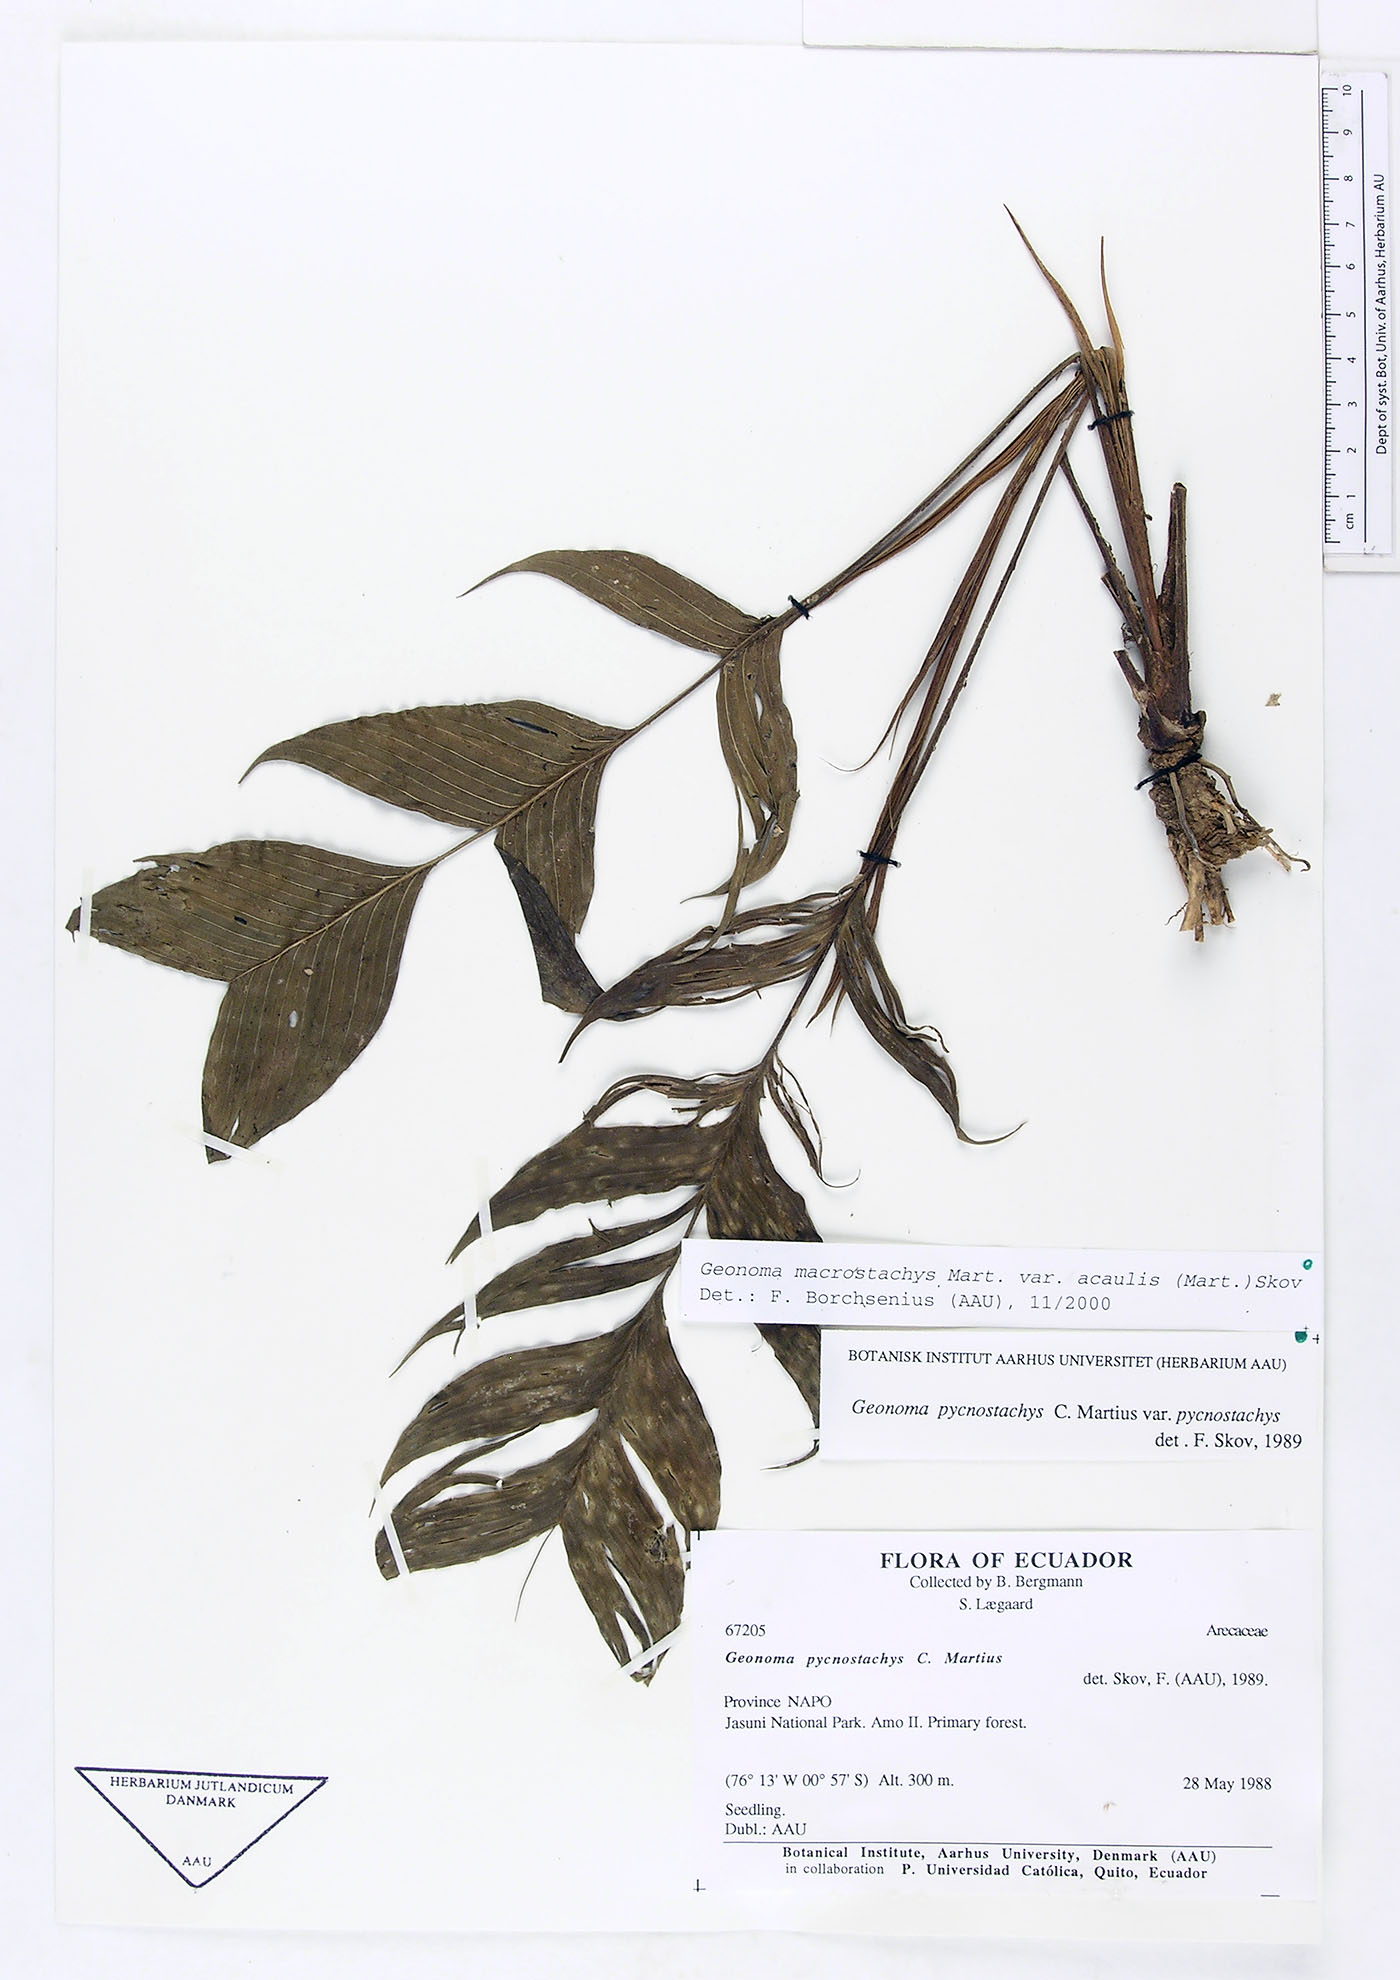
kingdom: Plantae
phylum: Tracheophyta
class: Liliopsida
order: Arecales
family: Arecaceae
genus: Geonoma
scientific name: Geonoma macrostachys
